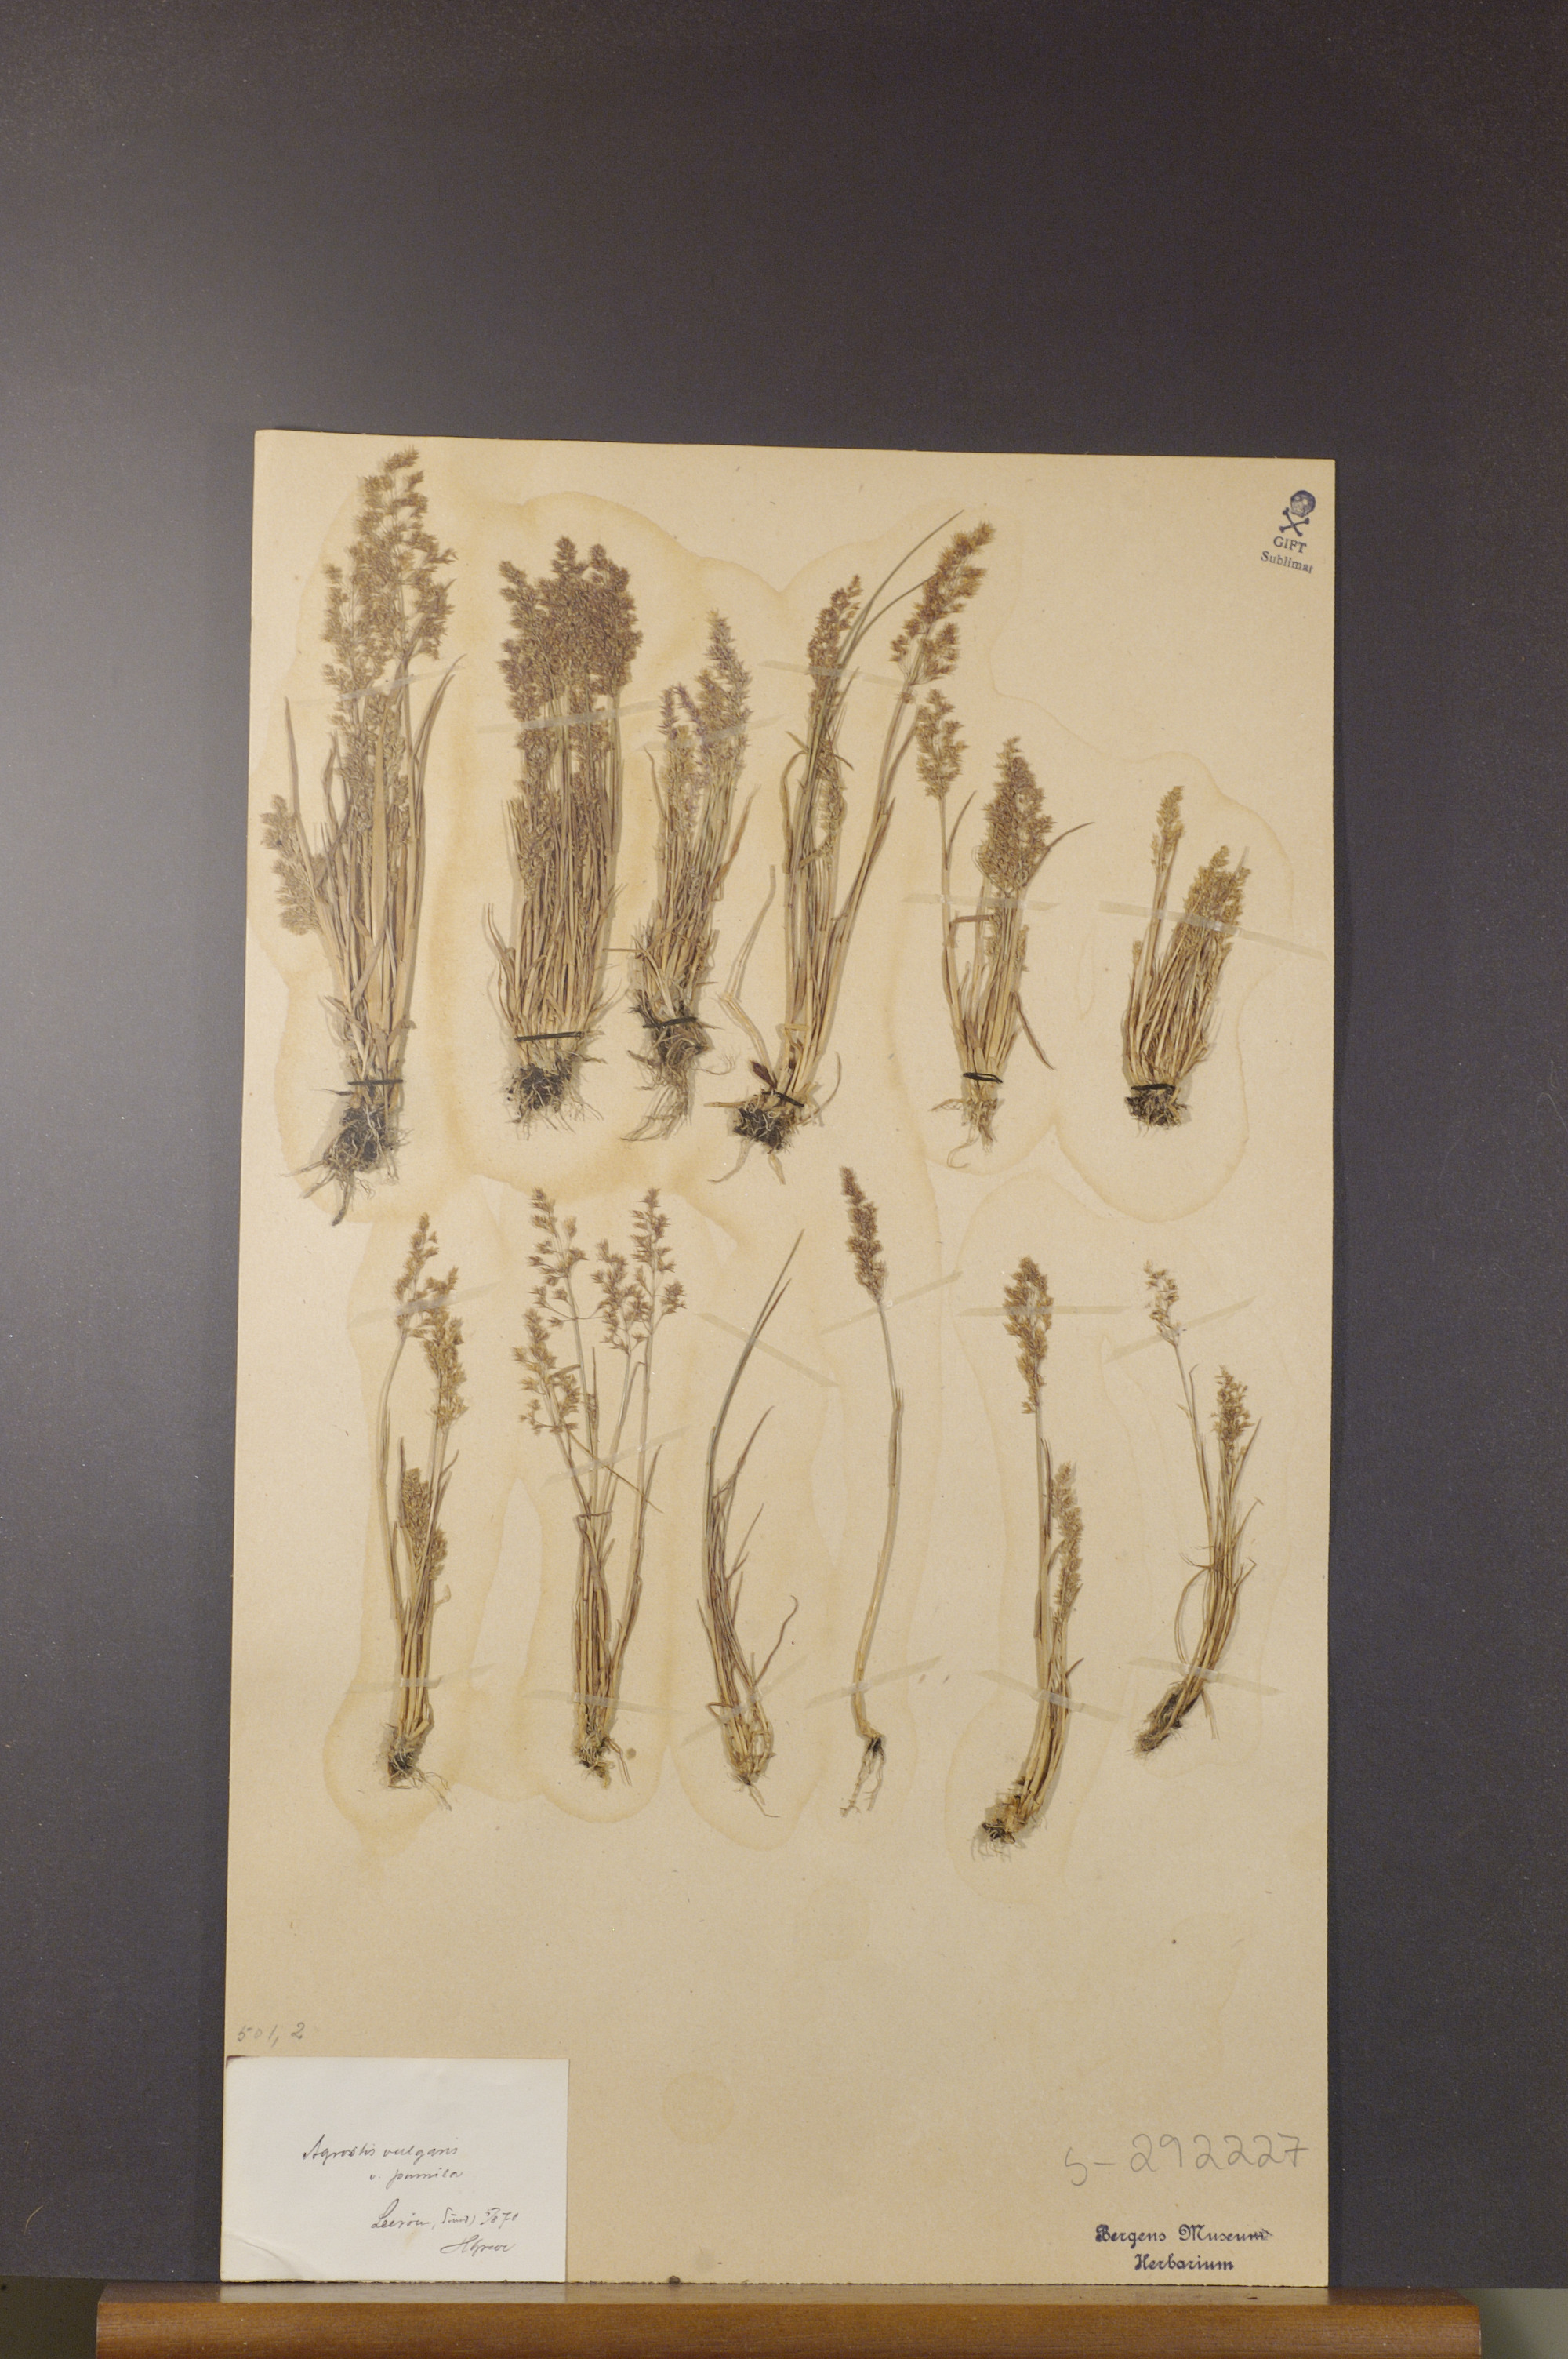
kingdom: Plantae
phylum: Tracheophyta
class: Liliopsida
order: Poales
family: Poaceae
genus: Agrostis
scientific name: Agrostis capillaris
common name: Colonial bentgrass
